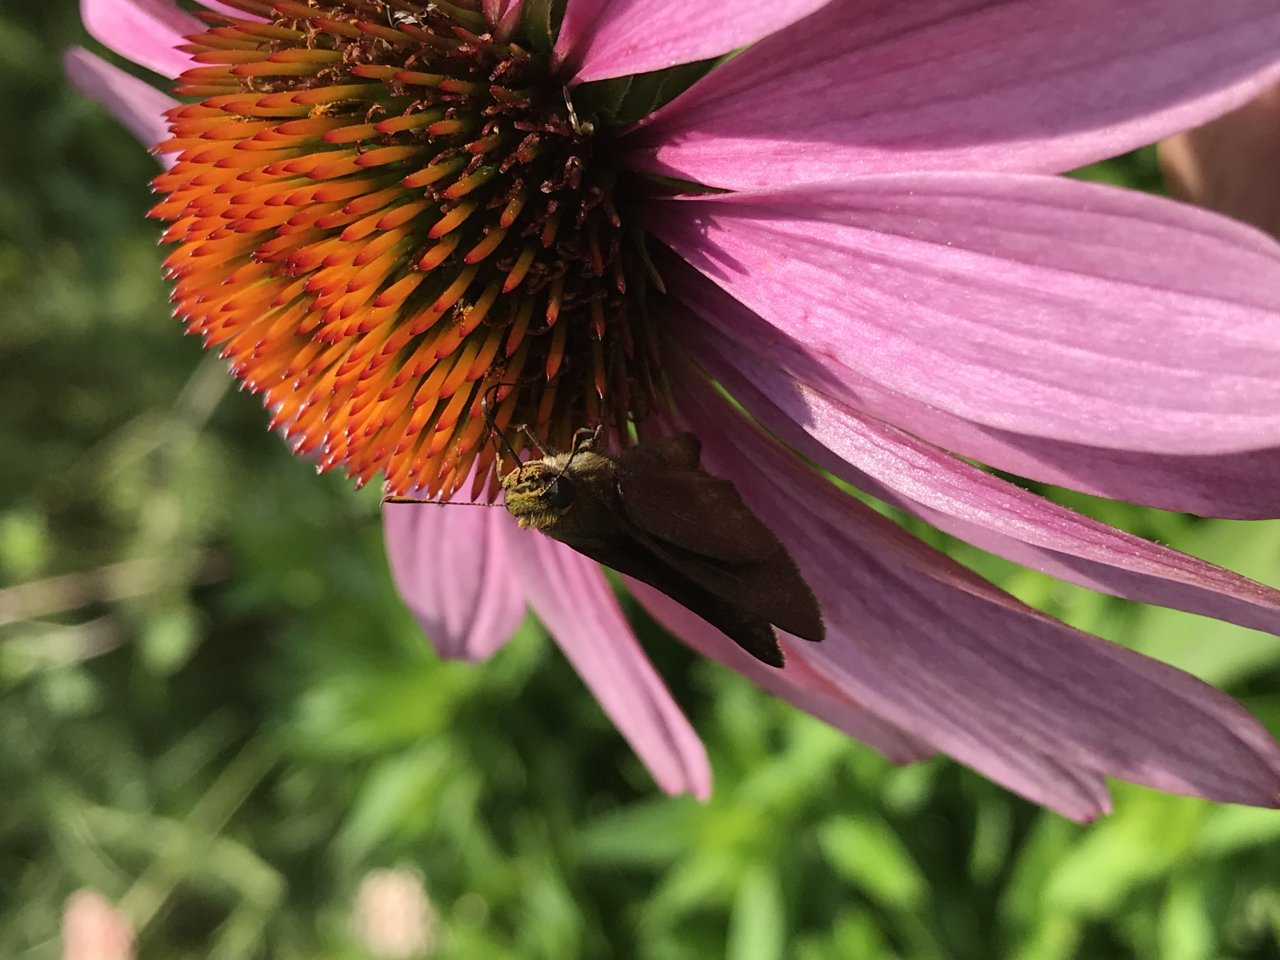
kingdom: Animalia
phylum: Arthropoda
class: Insecta
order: Lepidoptera
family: Hesperiidae
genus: Euphyes
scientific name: Euphyes vestris
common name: Dun Skipper
